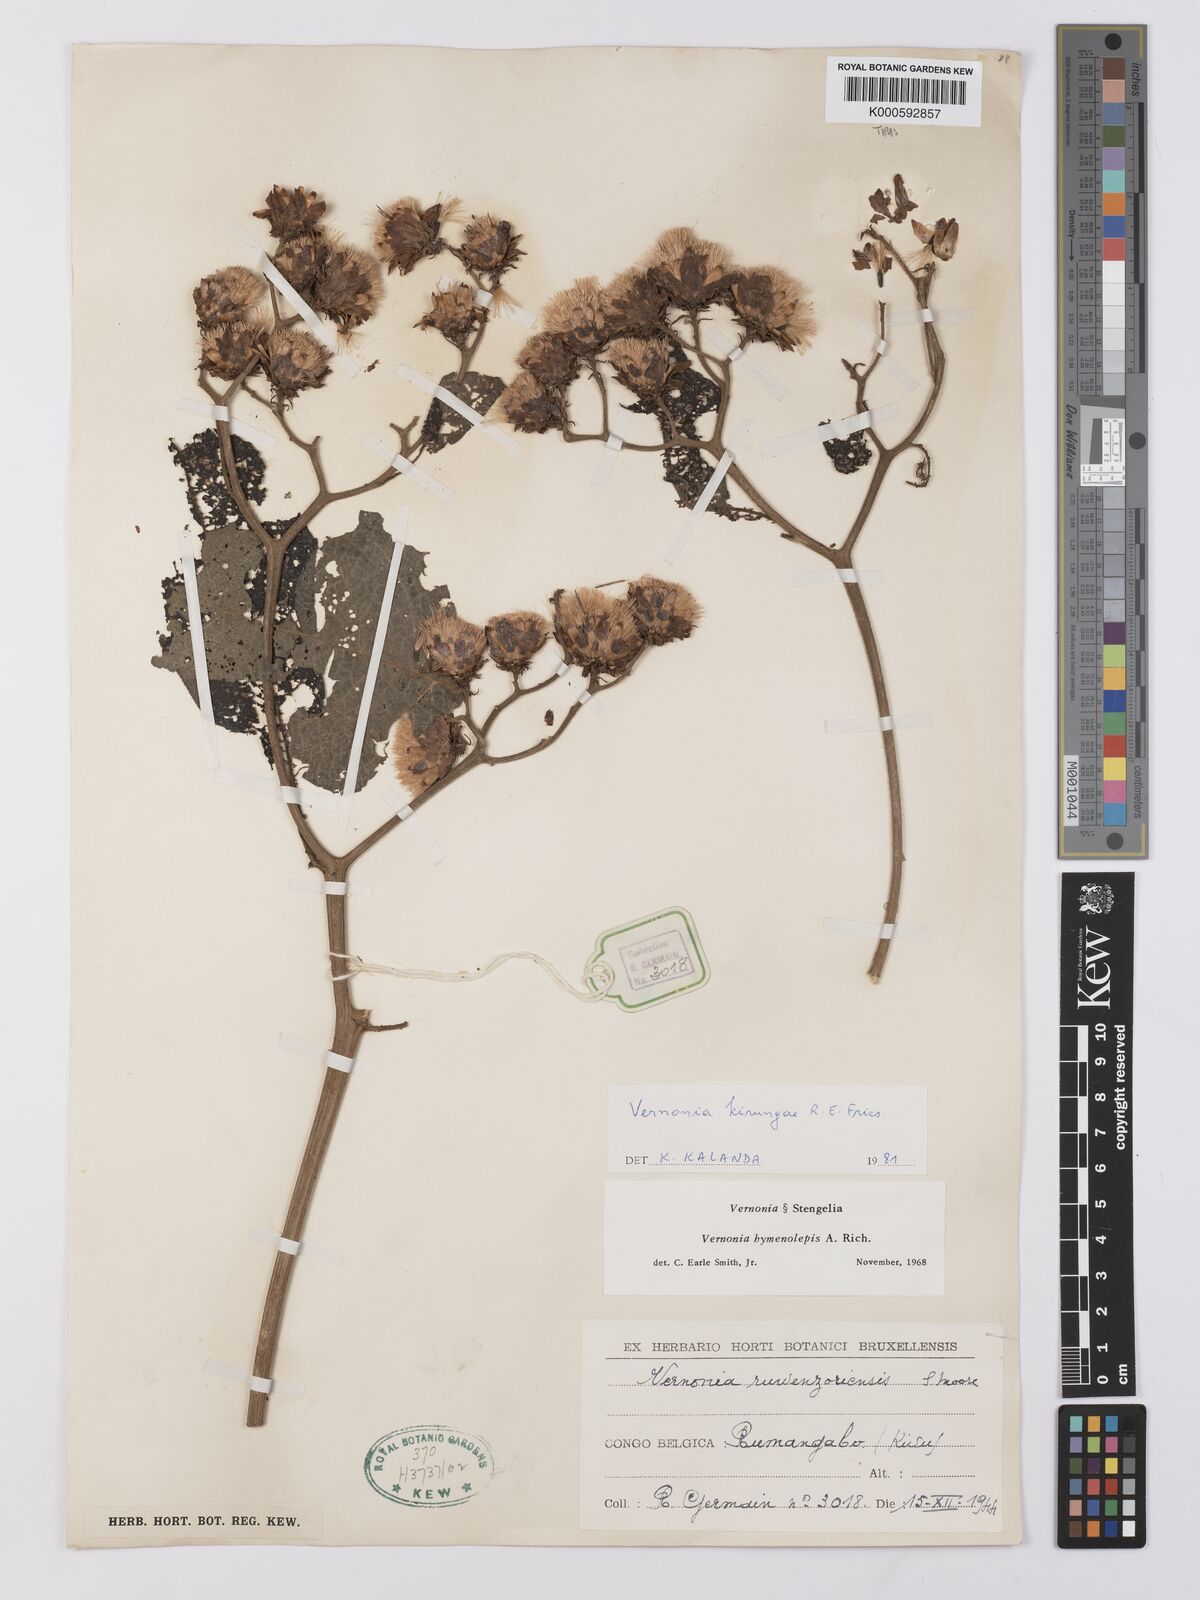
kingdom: Plantae
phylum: Tracheophyta
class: Magnoliopsida
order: Asterales
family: Asteraceae
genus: Baccharoides
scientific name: Baccharoides kirungae
